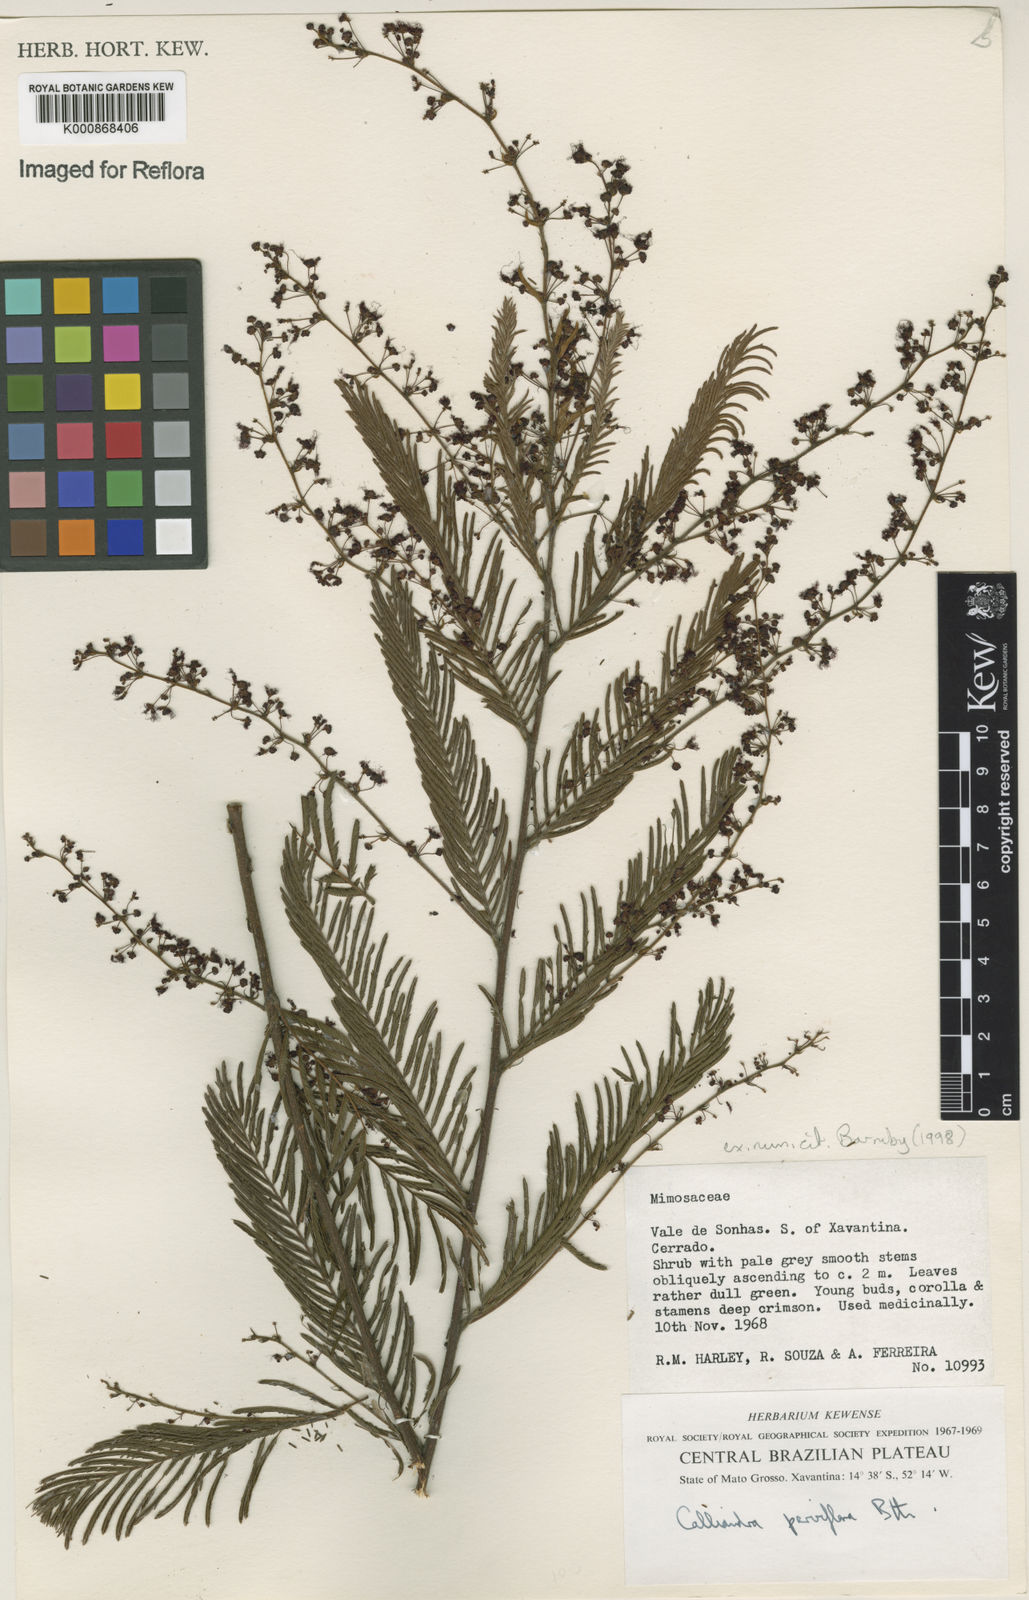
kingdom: Plantae
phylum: Tracheophyta
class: Magnoliopsida
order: Fabales
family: Fabaceae
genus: Calliandra
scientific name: Calliandra parviflora
